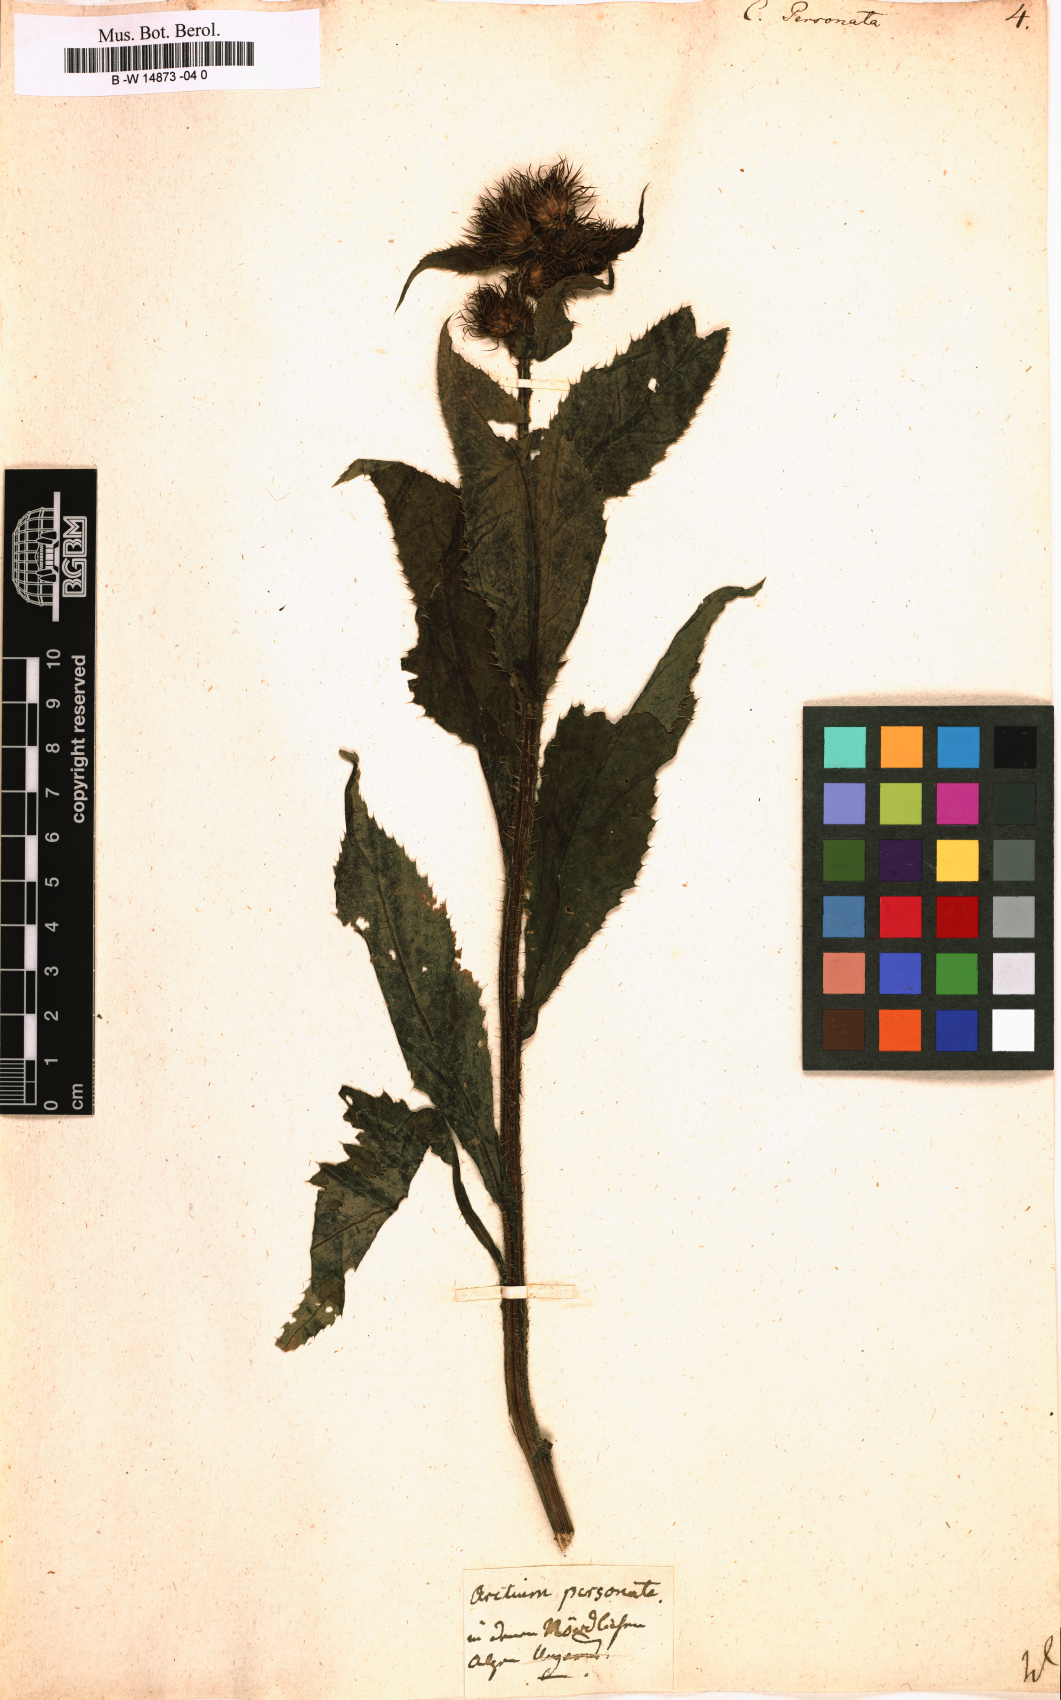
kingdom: Plantae
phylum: Tracheophyta
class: Magnoliopsida
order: Asterales
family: Asteraceae
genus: Carduus
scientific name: Carduus personata
